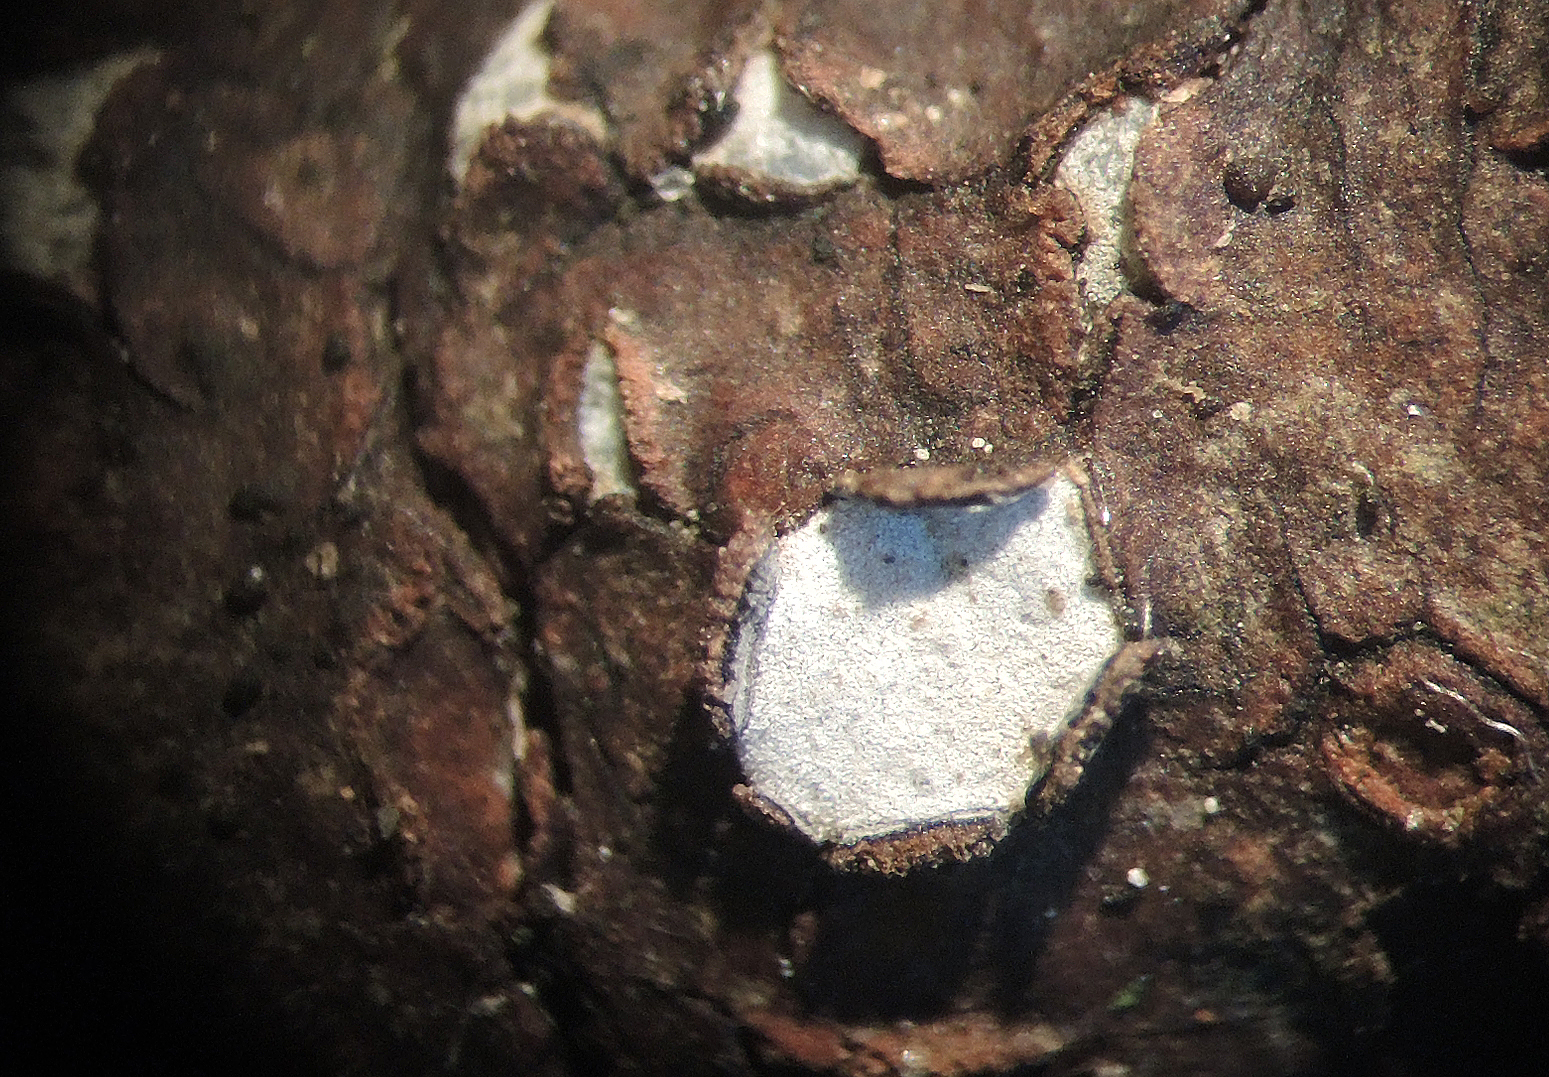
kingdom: Fungi
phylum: Ascomycota
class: Leotiomycetes
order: Chaetomellales
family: Marthamycetaceae
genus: Propolis
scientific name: Propolis farinosa
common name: almindelig vedsprængerskive
